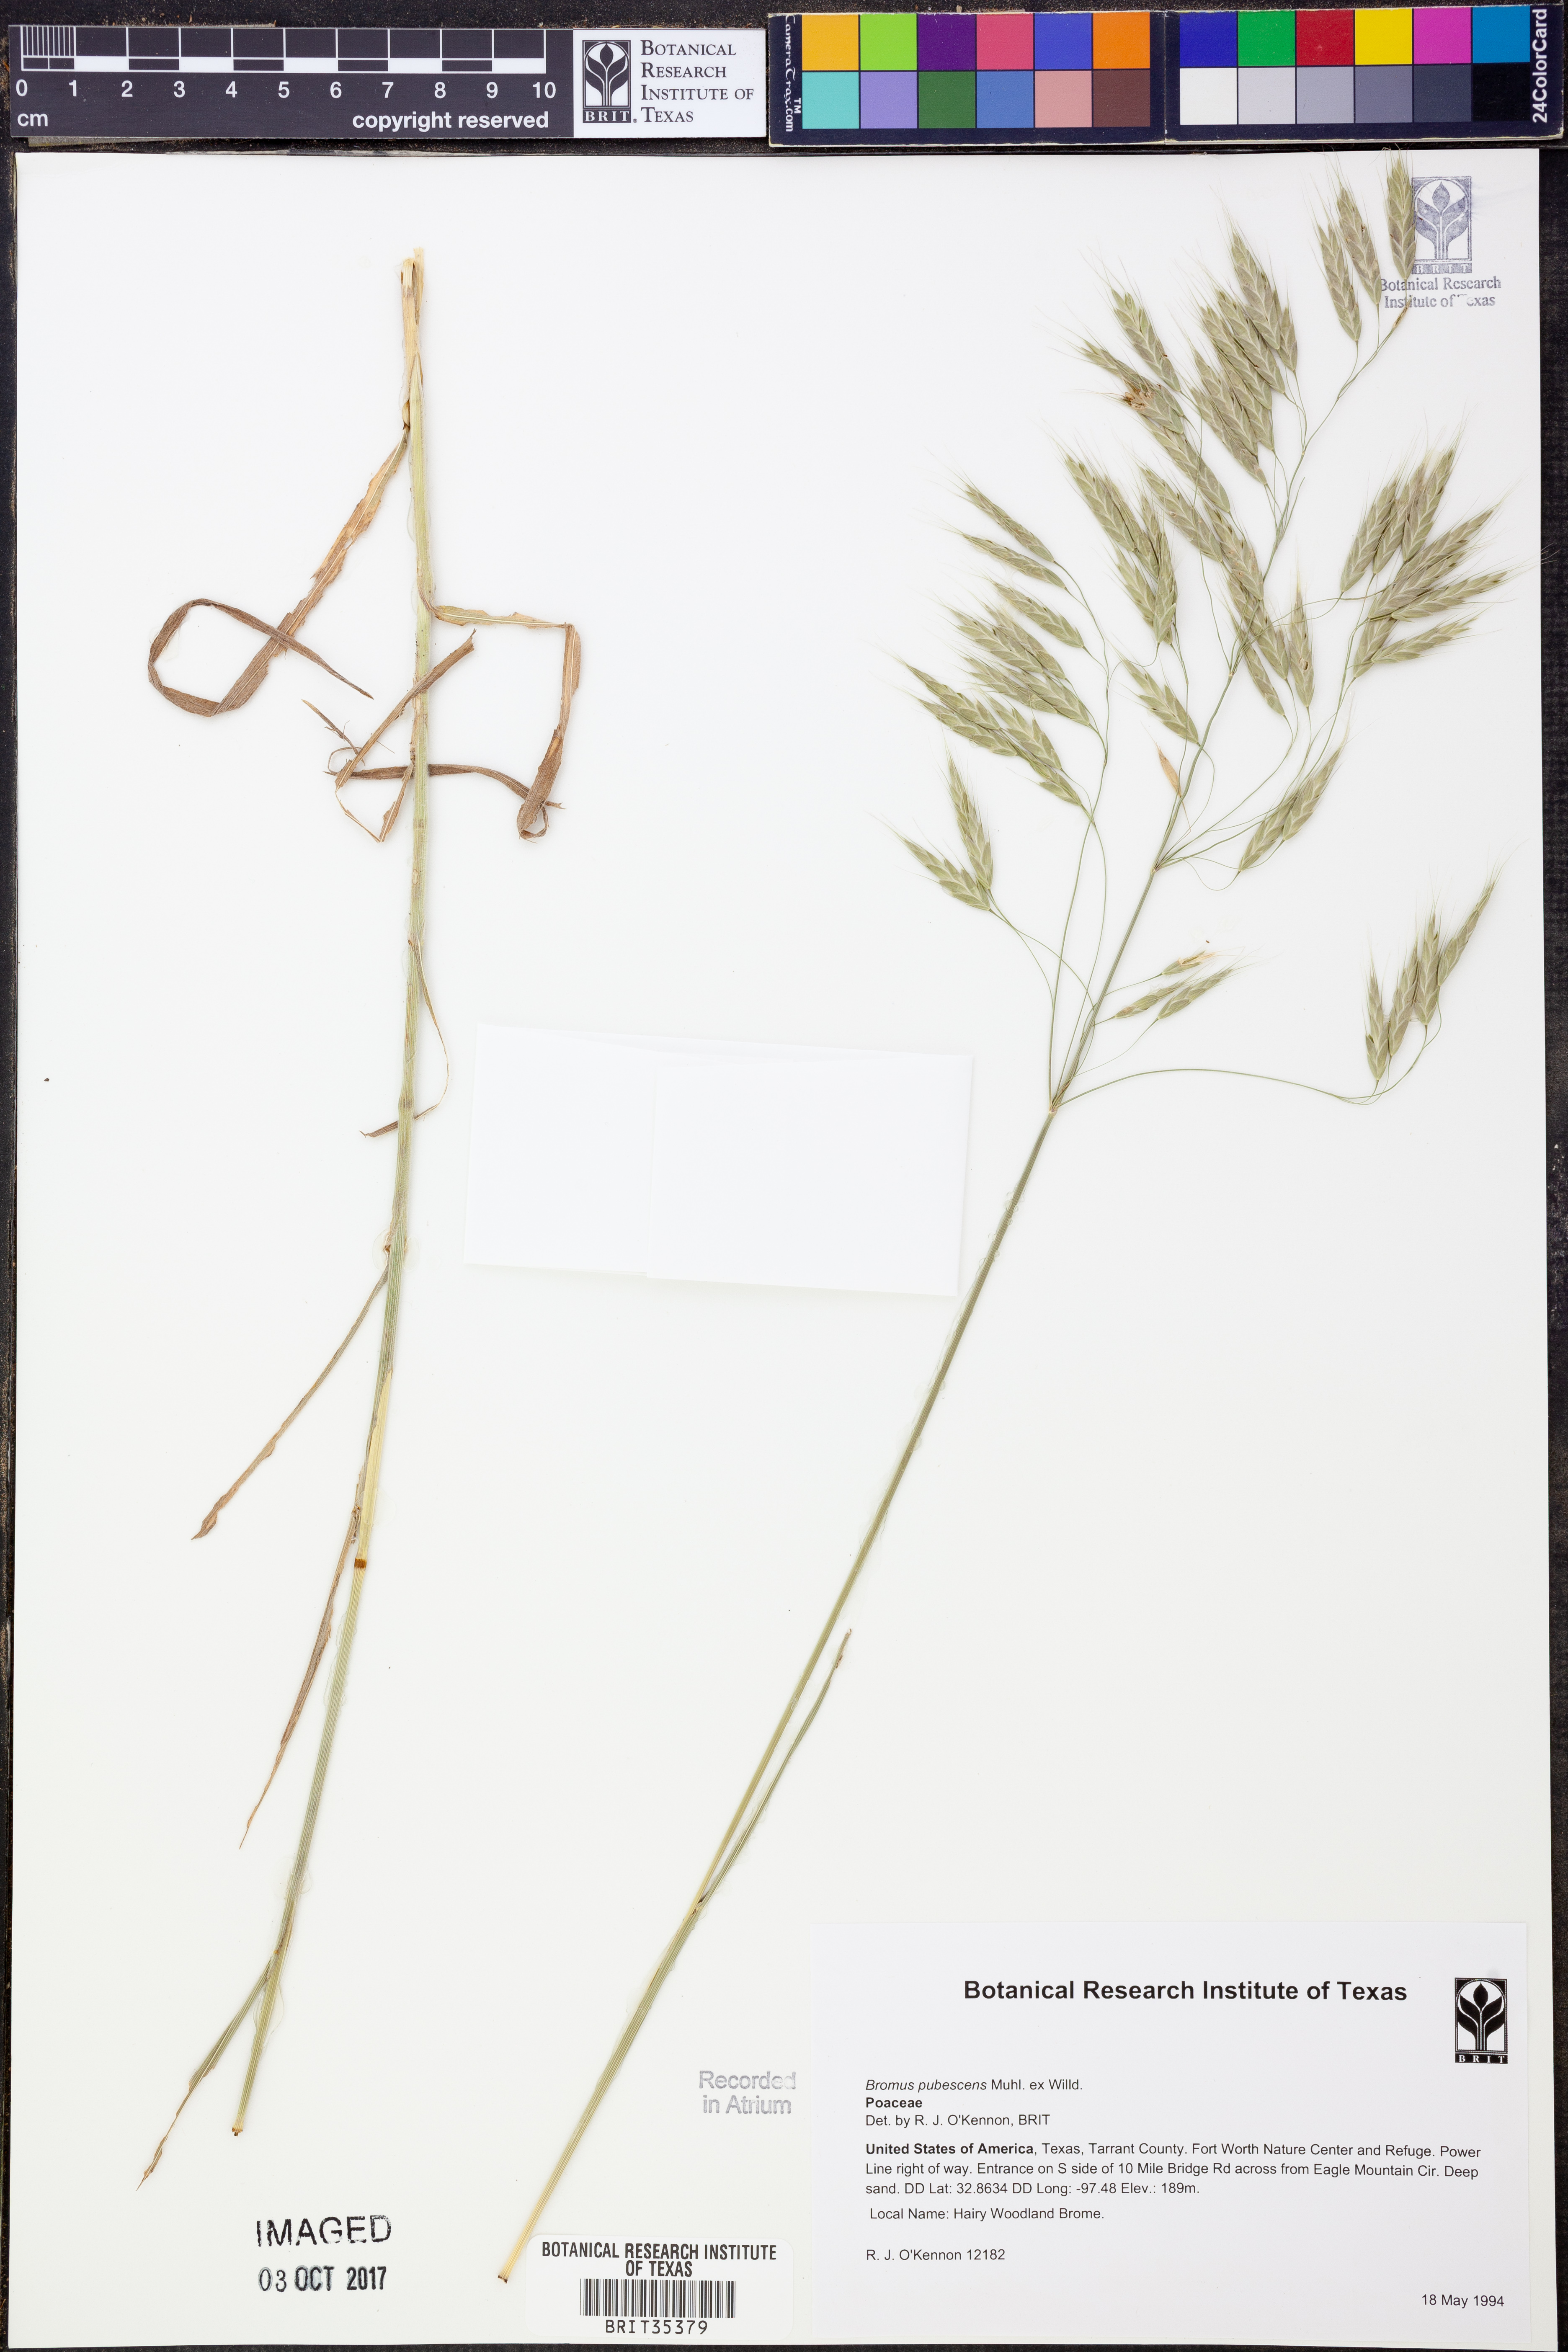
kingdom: Plantae
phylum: Tracheophyta
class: Liliopsida
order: Poales
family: Poaceae
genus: Bromus
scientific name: Bromus pubescens
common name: Hairy wood brome grass
